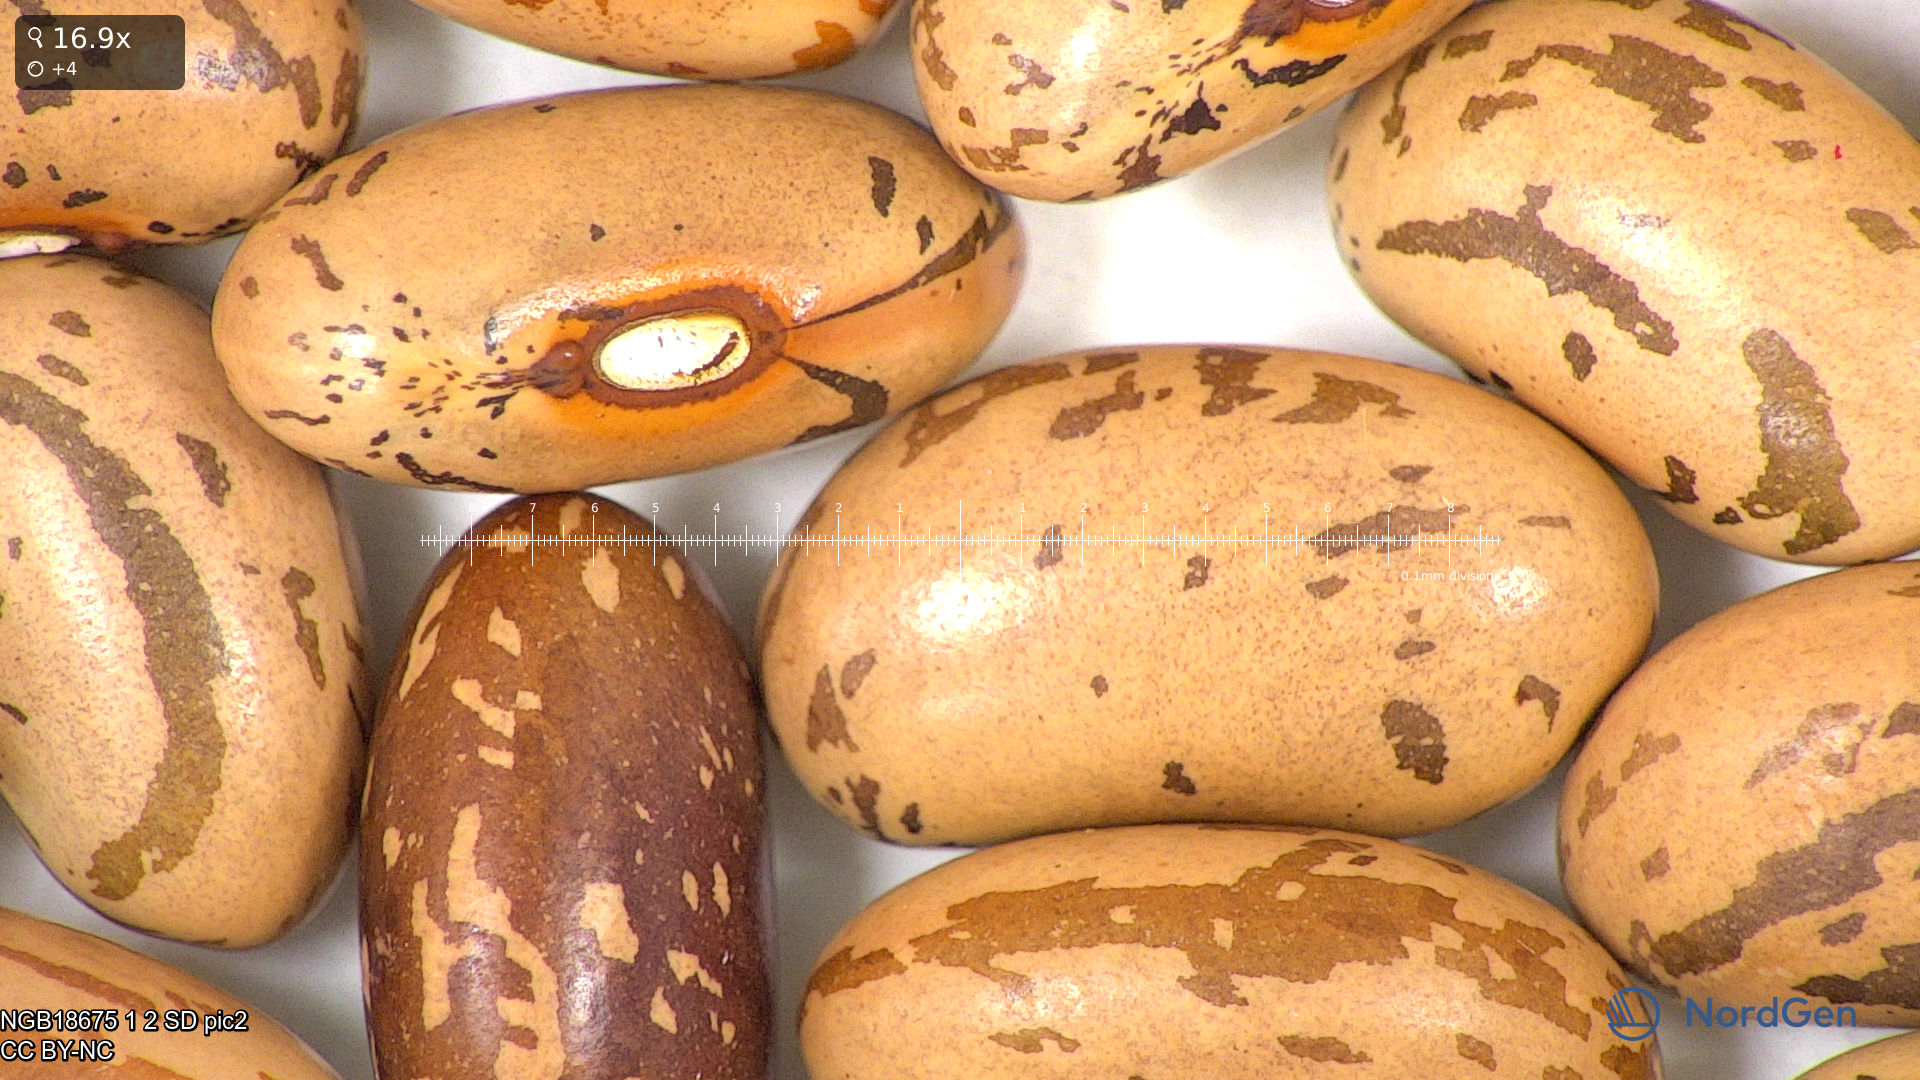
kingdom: Plantae
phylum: Tracheophyta
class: Magnoliopsida
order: Fabales
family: Fabaceae
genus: Phaseolus
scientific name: Phaseolus vulgaris
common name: Bean
